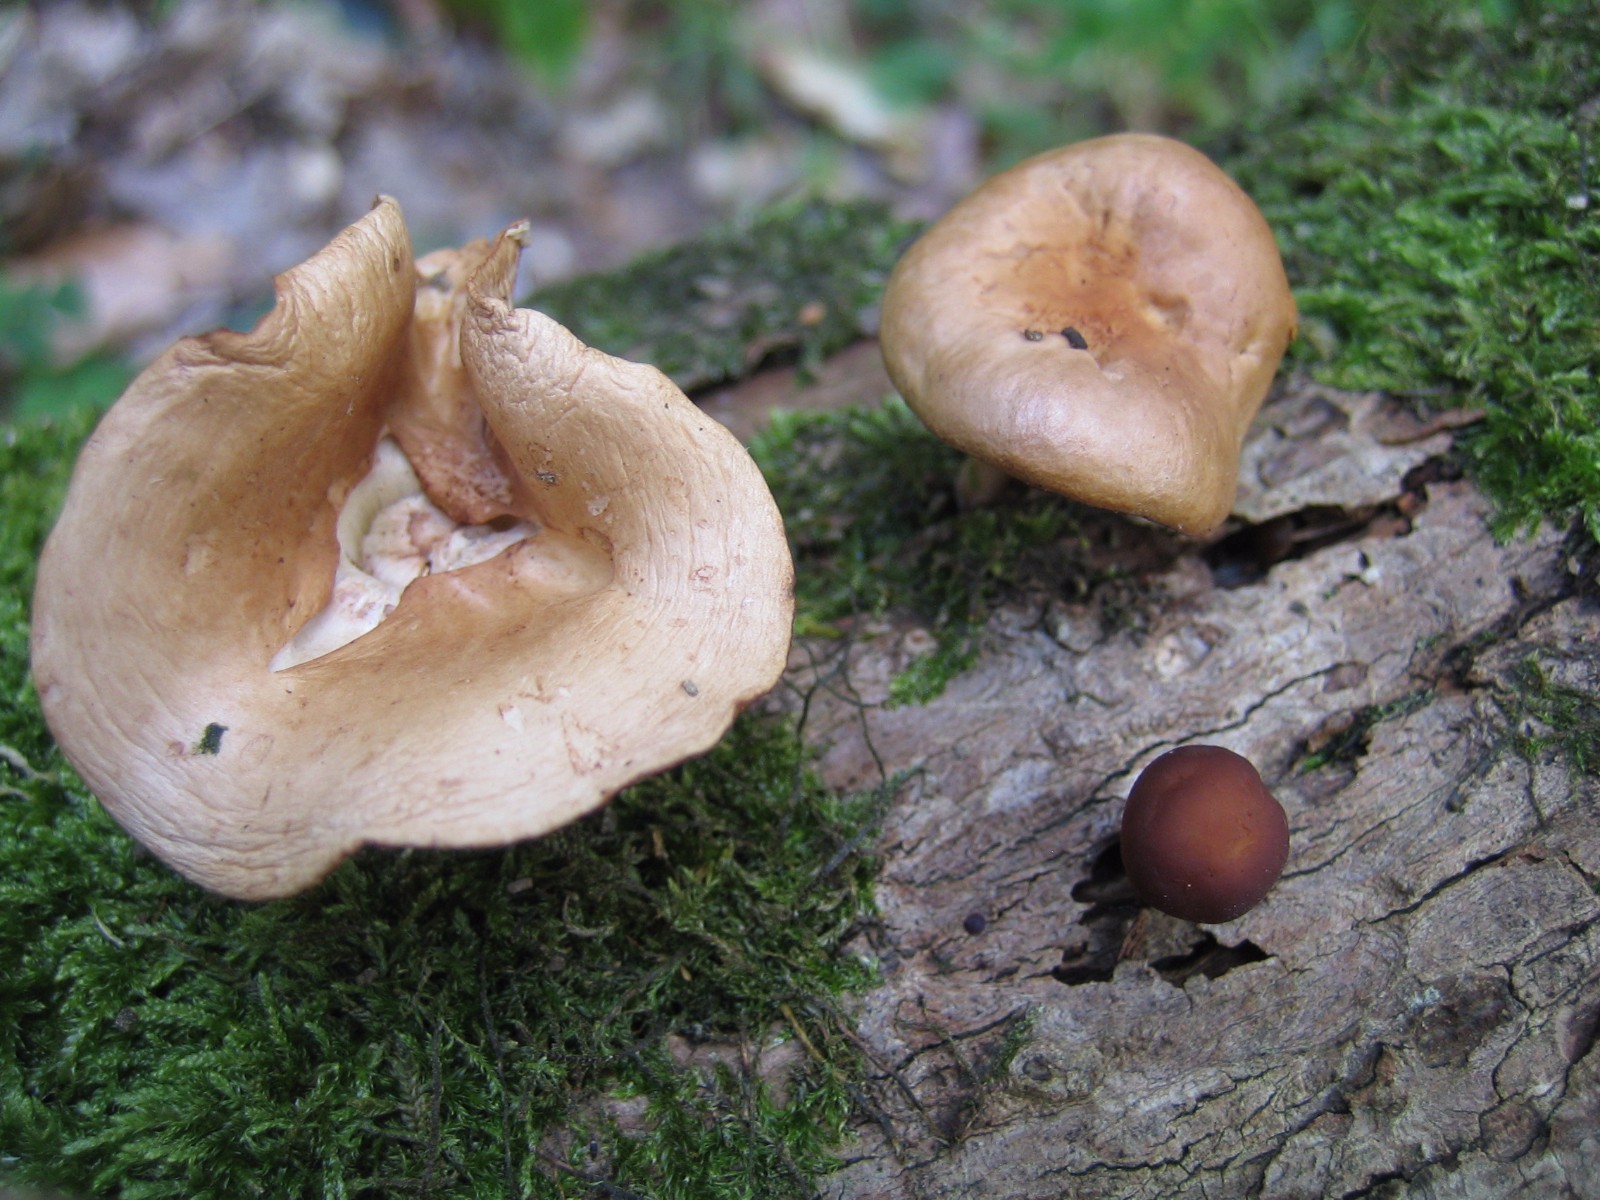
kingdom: Fungi
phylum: Basidiomycota
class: Agaricomycetes
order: Agaricales
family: Omphalotaceae
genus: Gymnopus
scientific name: Gymnopus
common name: fladhat
